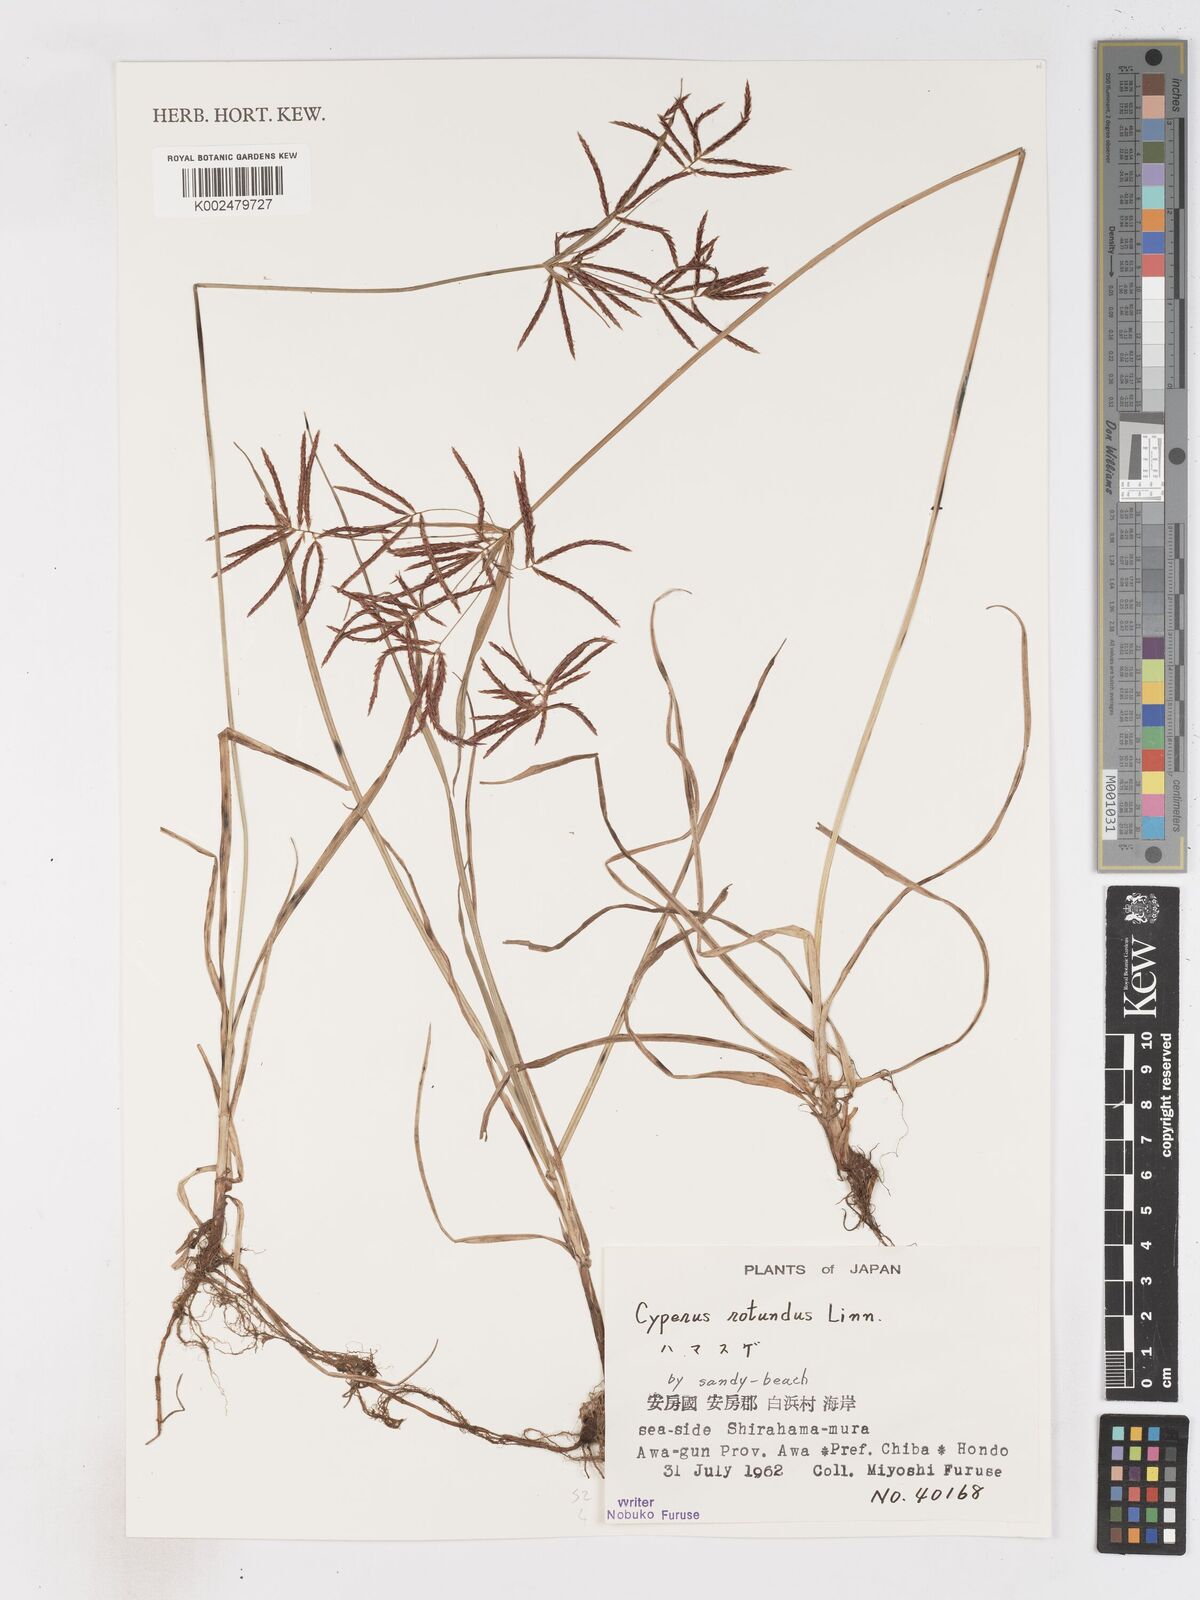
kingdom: Plantae
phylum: Tracheophyta
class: Liliopsida
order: Poales
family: Cyperaceae
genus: Cyperus
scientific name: Cyperus rotundus
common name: Nutgrass
